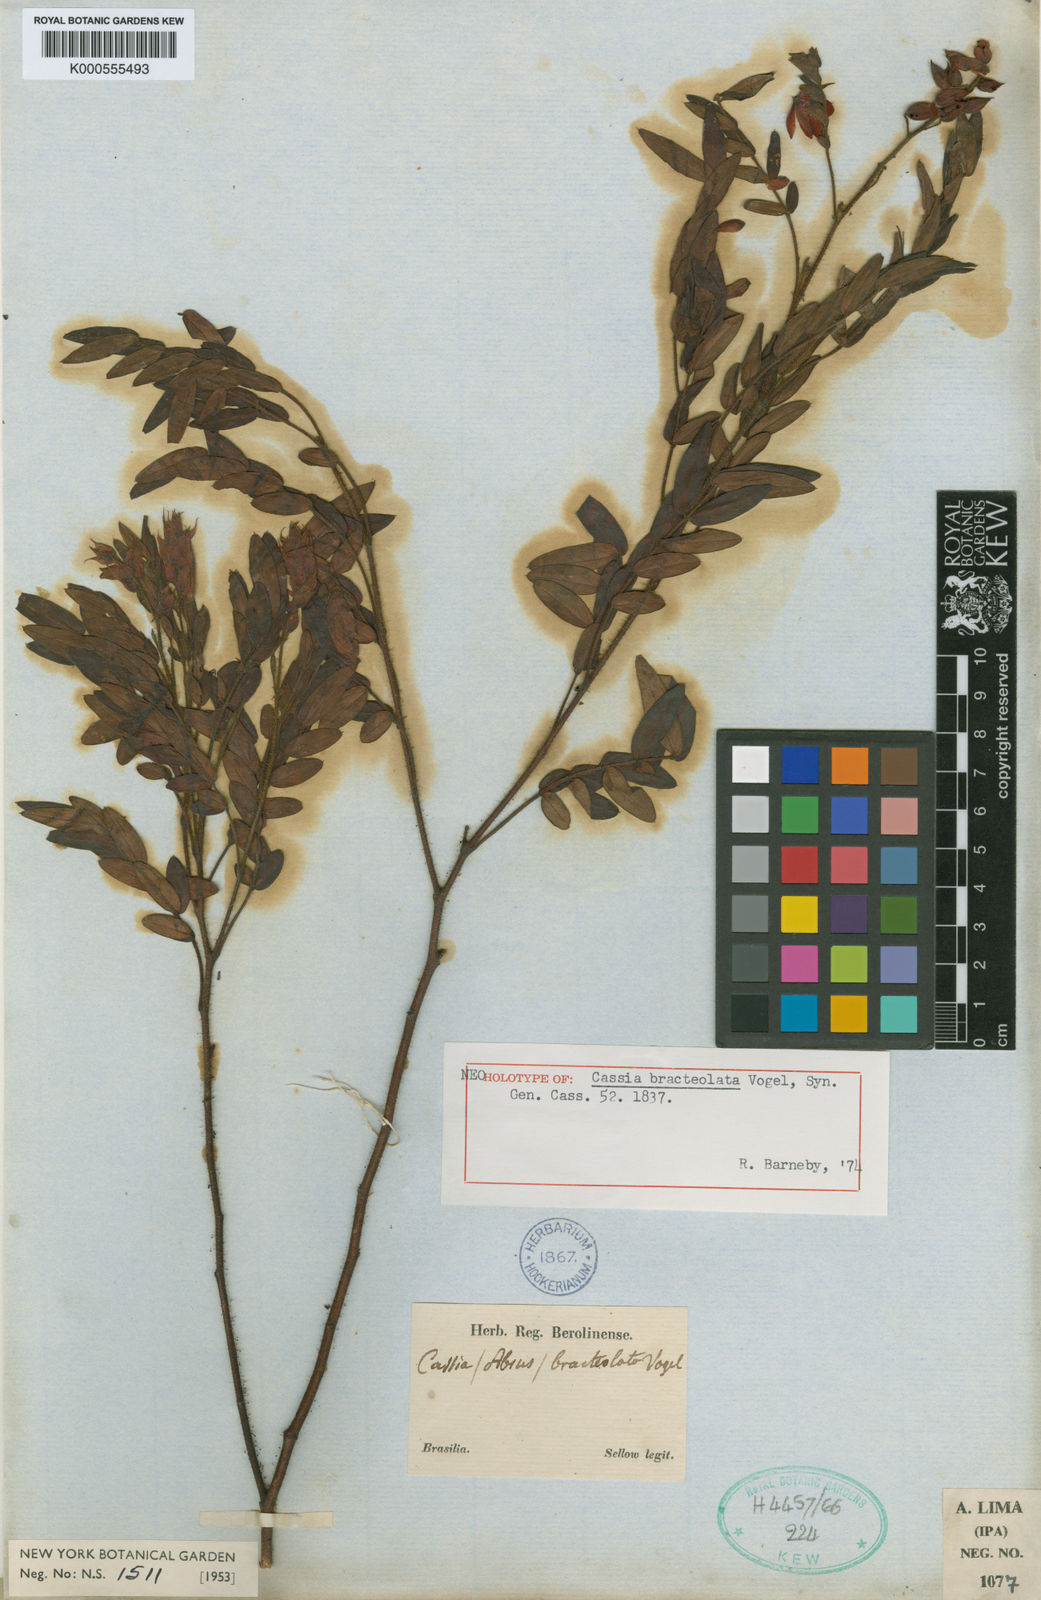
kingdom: Plantae
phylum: Tracheophyta
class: Magnoliopsida
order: Fabales
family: Fabaceae
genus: Chamaecrista
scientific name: Chamaecrista bracteolata
